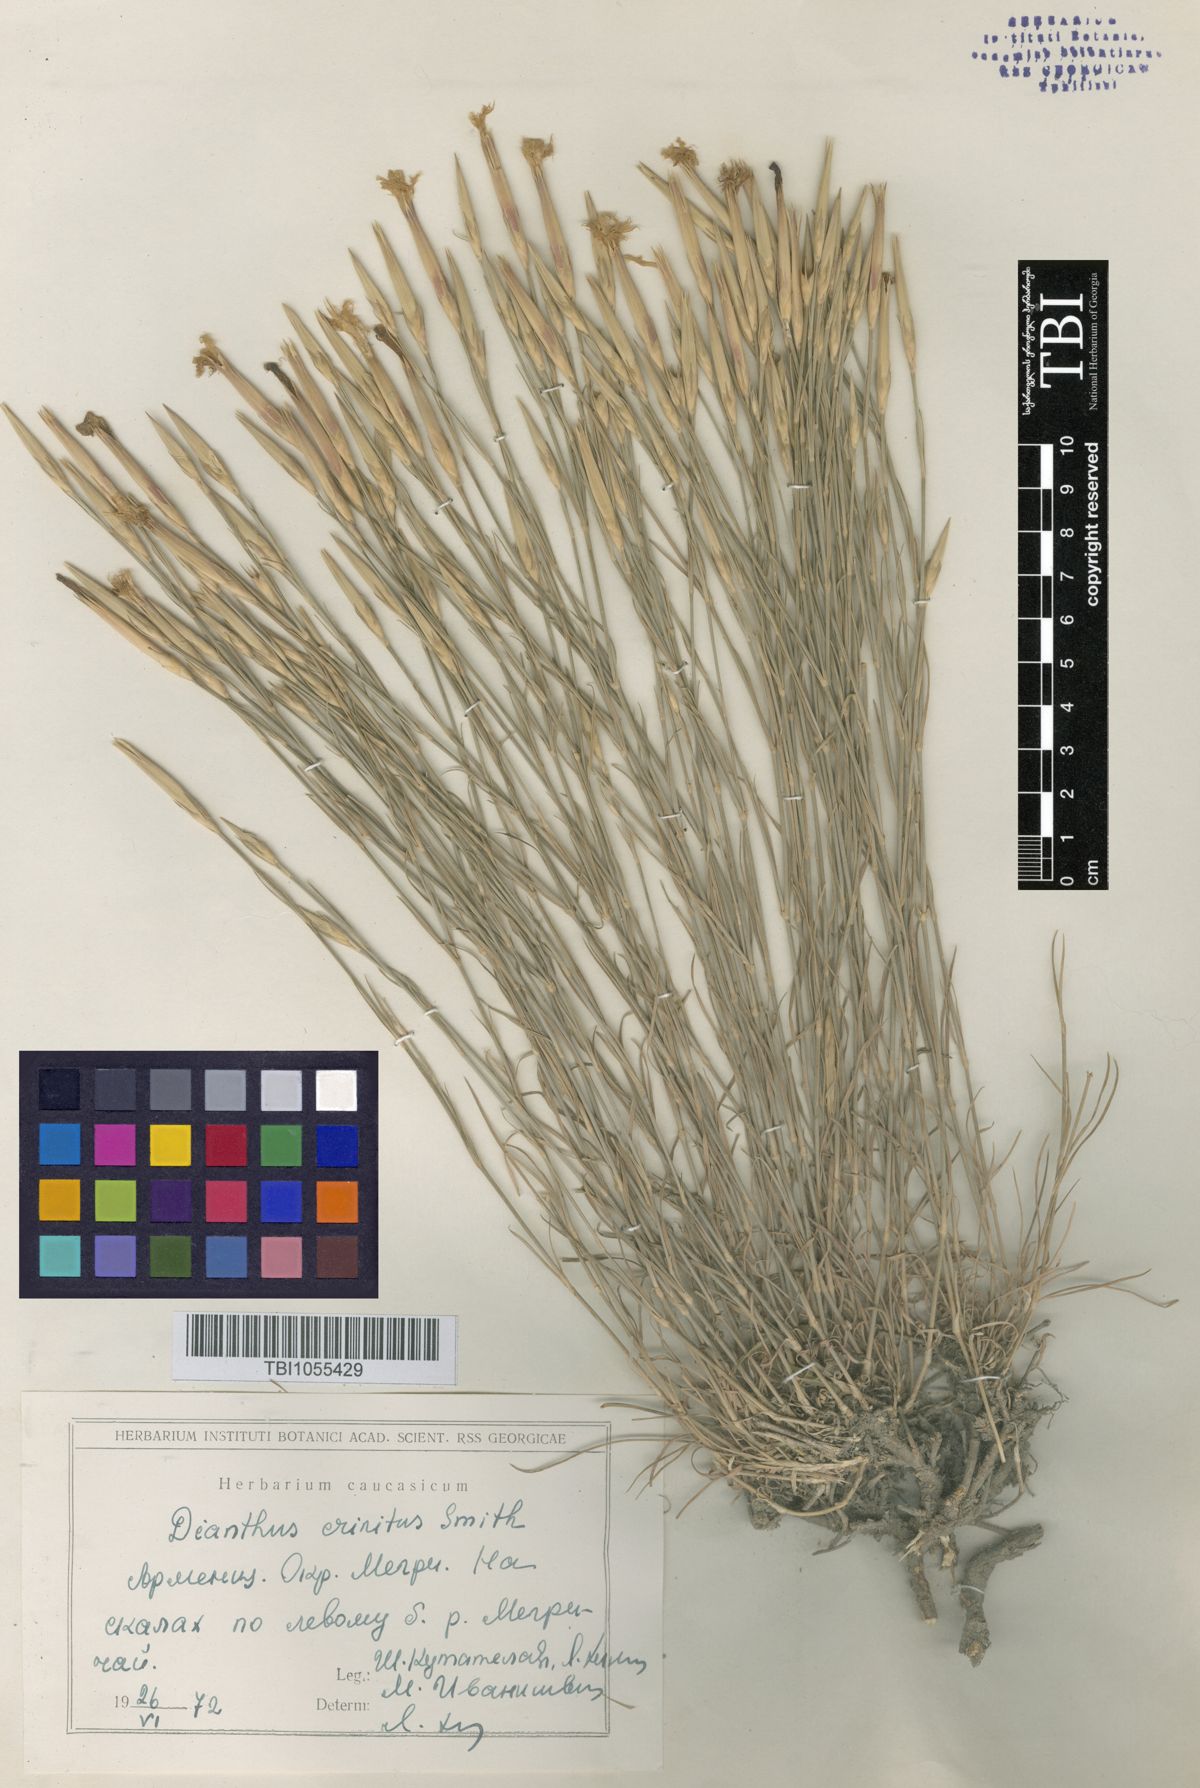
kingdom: Plantae
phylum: Tracheophyta
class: Magnoliopsida
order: Caryophyllales
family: Caryophyllaceae
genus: Dianthus
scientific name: Dianthus crinitus
